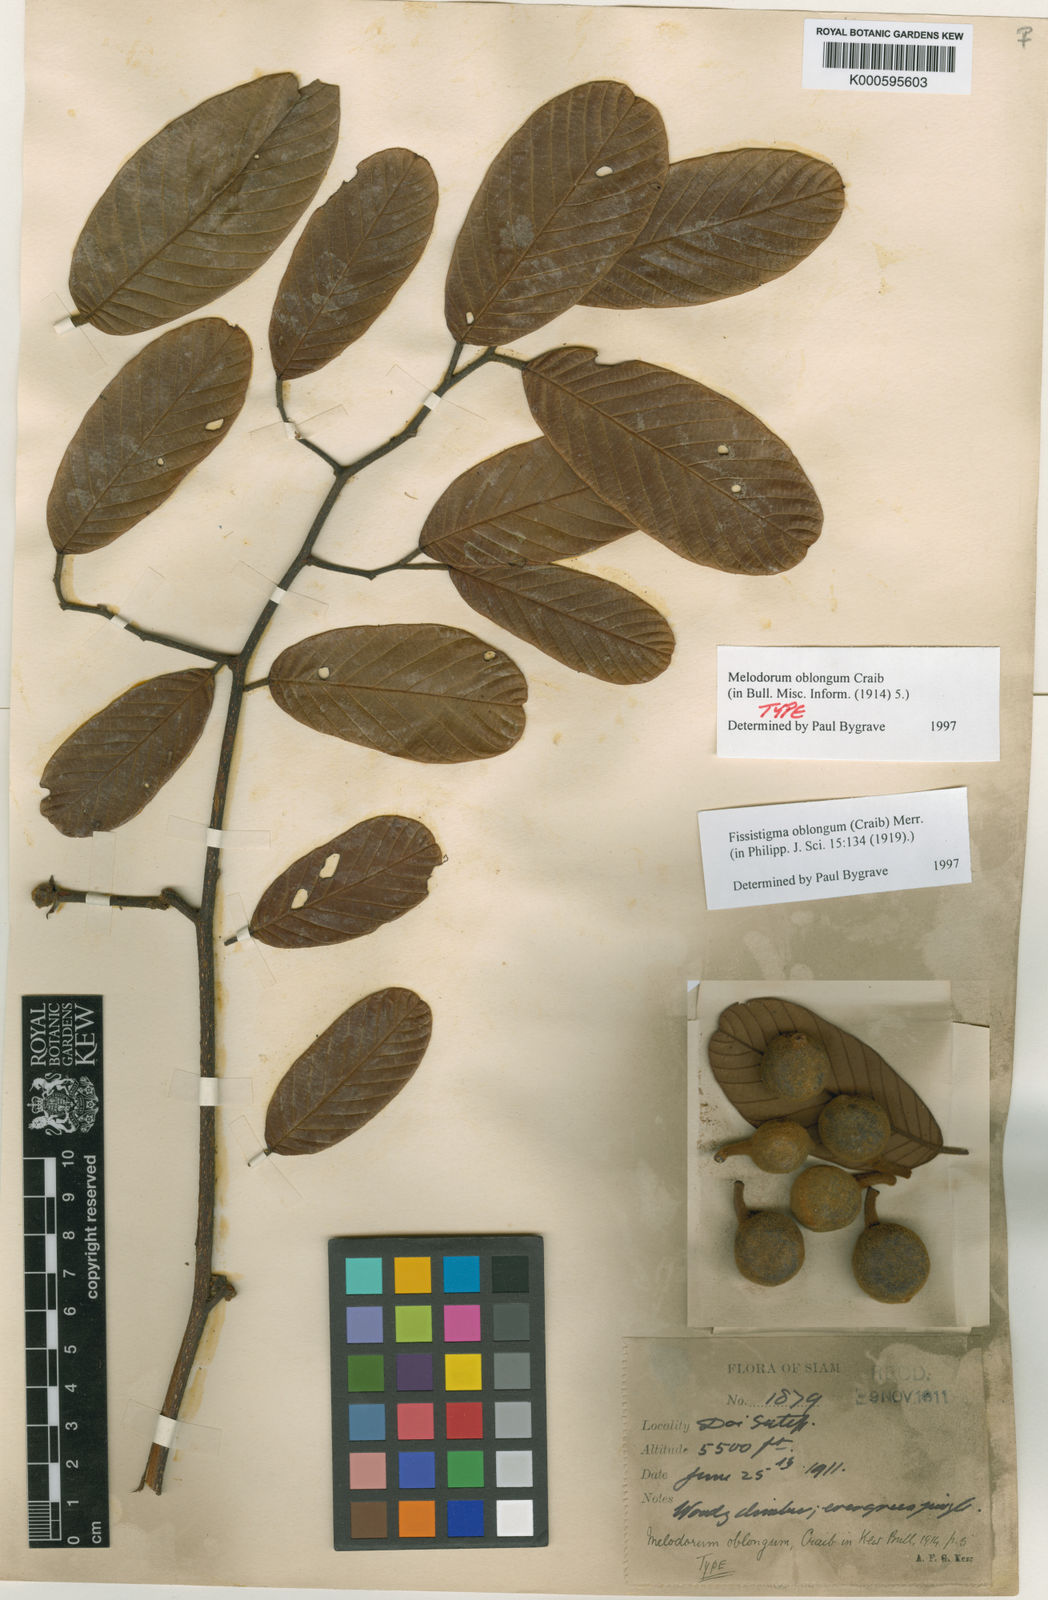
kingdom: Plantae
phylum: Tracheophyta
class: Magnoliopsida
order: Magnoliales
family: Annonaceae
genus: Melodorum
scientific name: Melodorum oblongum
